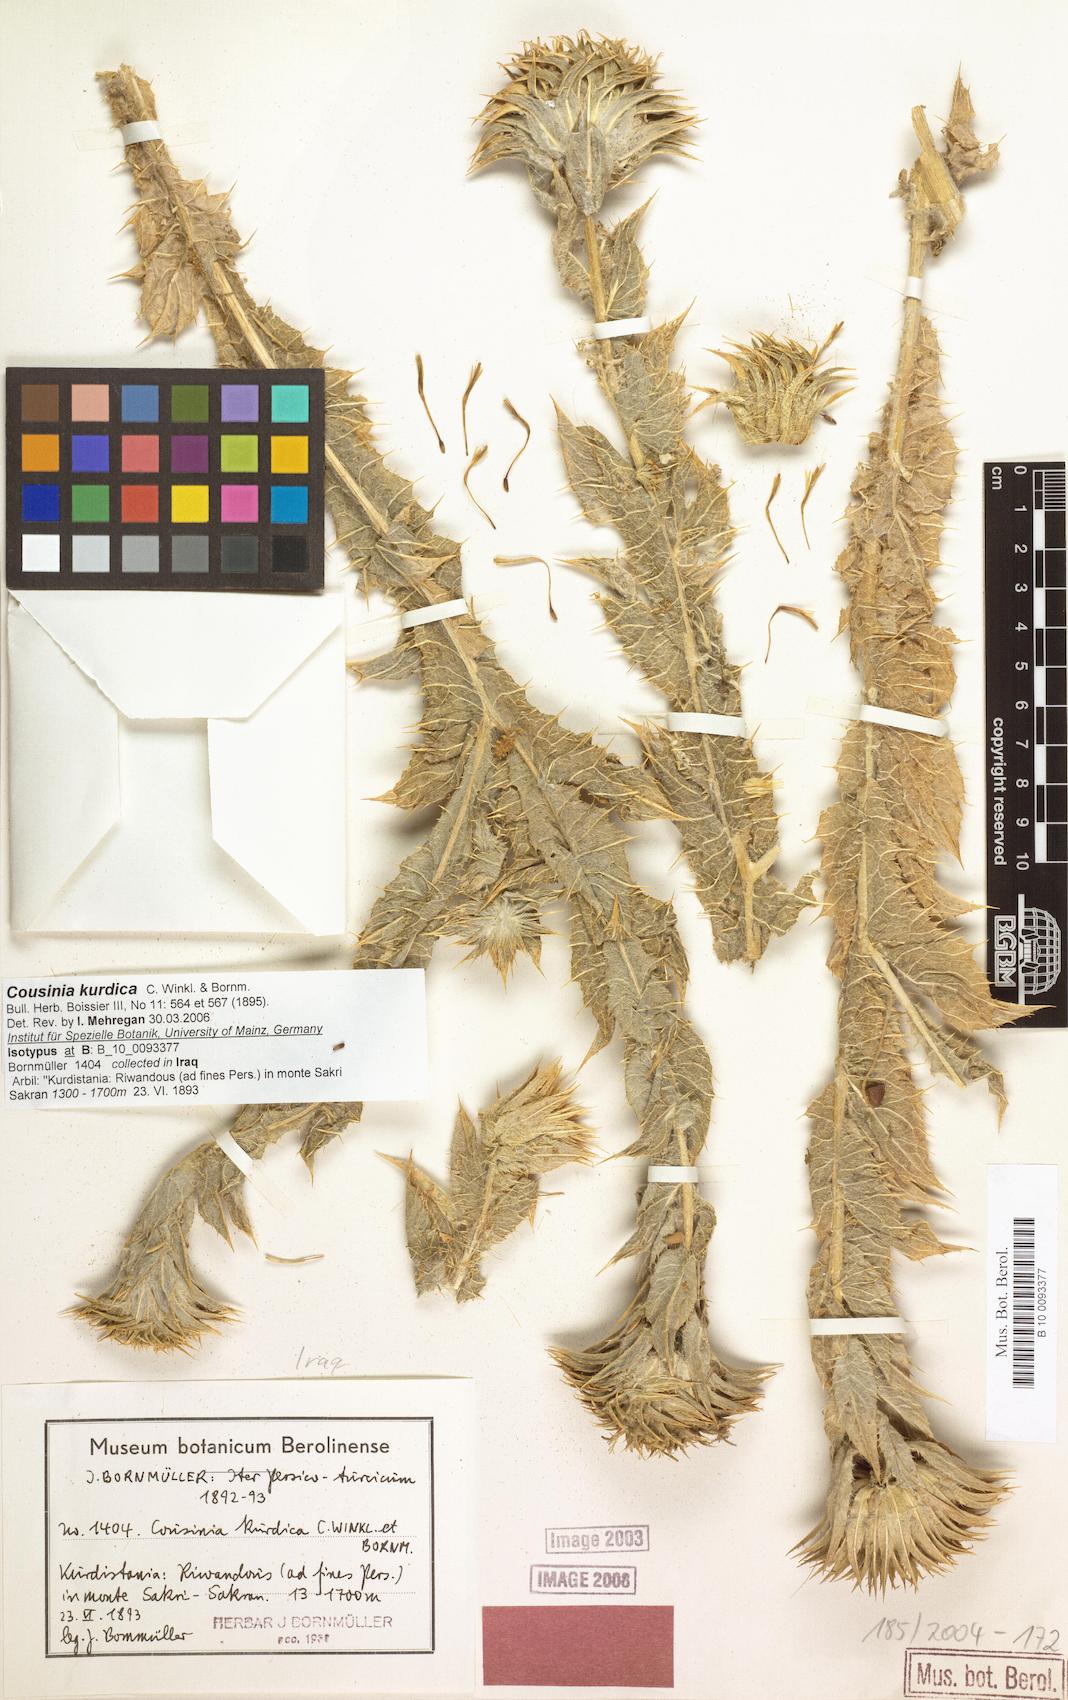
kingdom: Plantae
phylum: Tracheophyta
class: Magnoliopsida
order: Asterales
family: Asteraceae
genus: Cousinia
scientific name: Cousinia odontolepis
